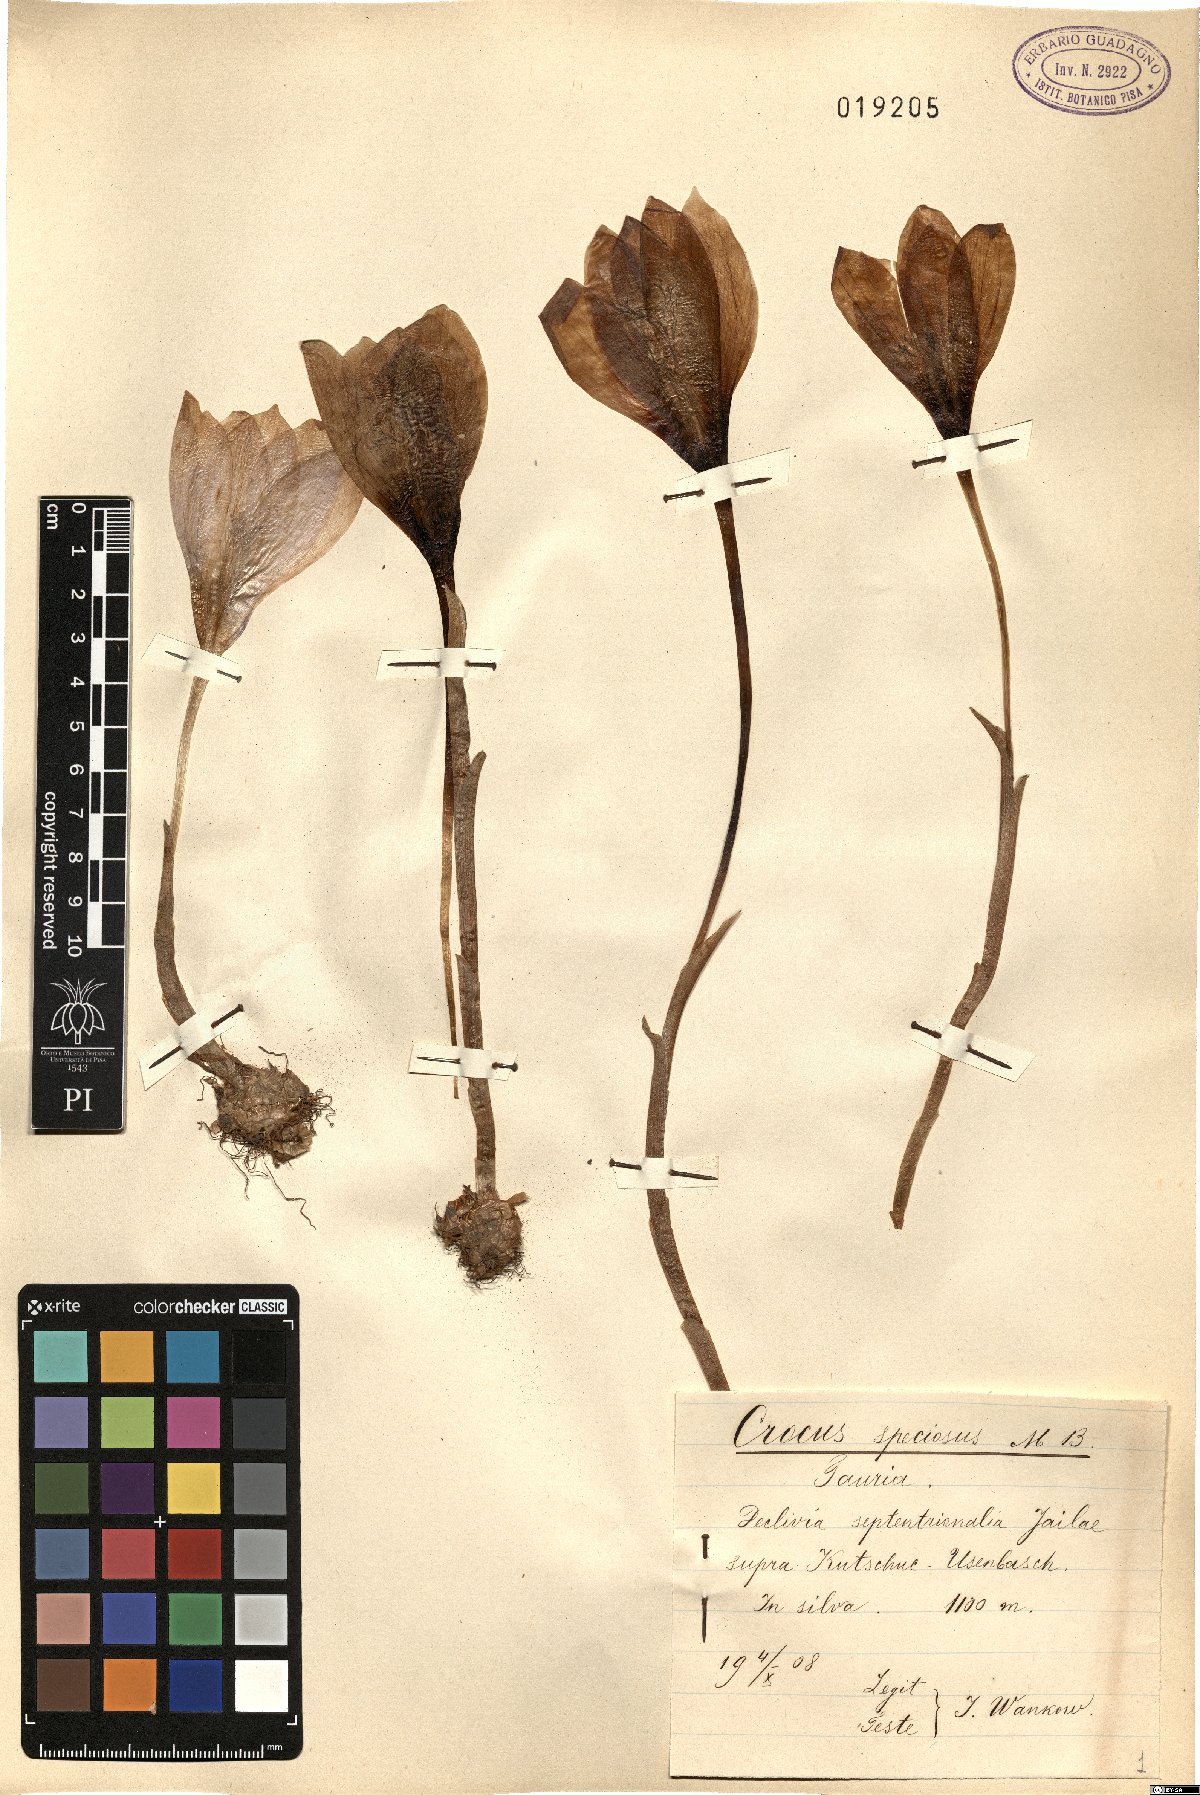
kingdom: Plantae
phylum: Tracheophyta
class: Liliopsida
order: Asparagales
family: Iridaceae
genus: Crocus
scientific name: Crocus speciosus
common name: Bieberstein's crocus
